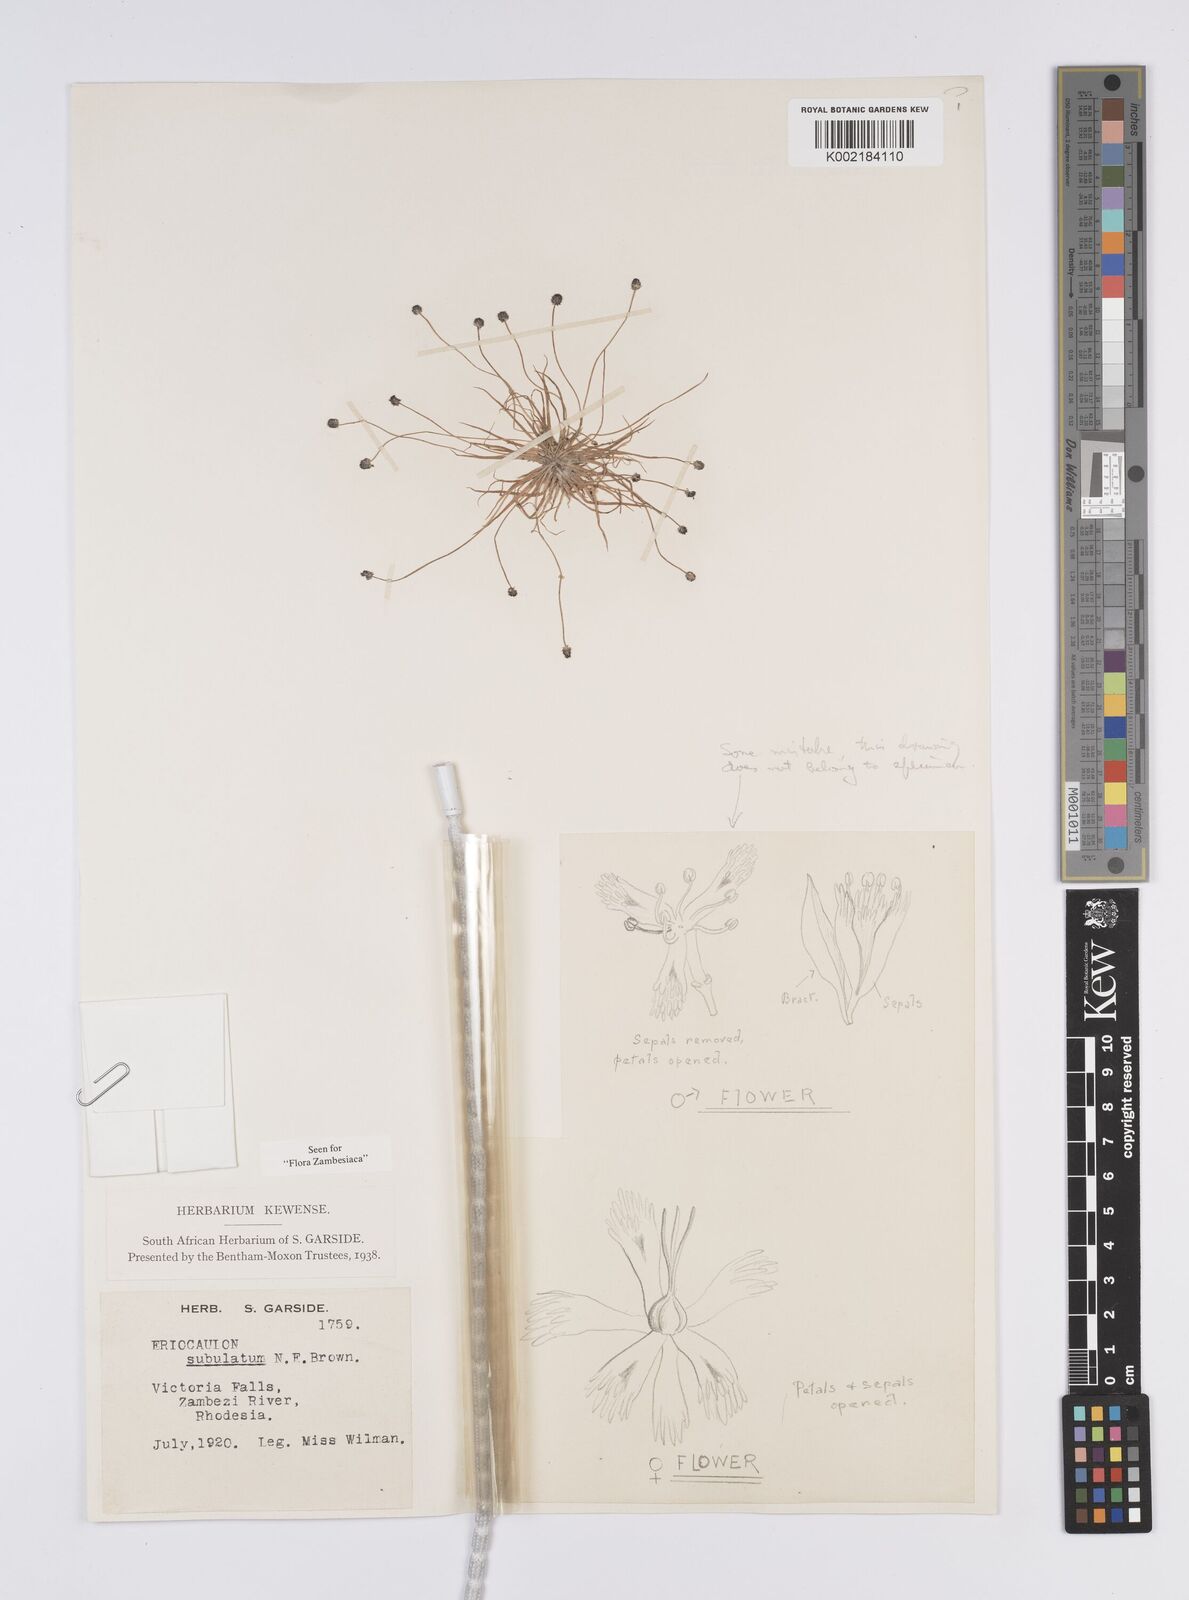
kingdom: Plantae
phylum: Tracheophyta
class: Liliopsida
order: Poales
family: Eriocaulaceae
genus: Eriocaulon
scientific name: Eriocaulon abyssinicum
